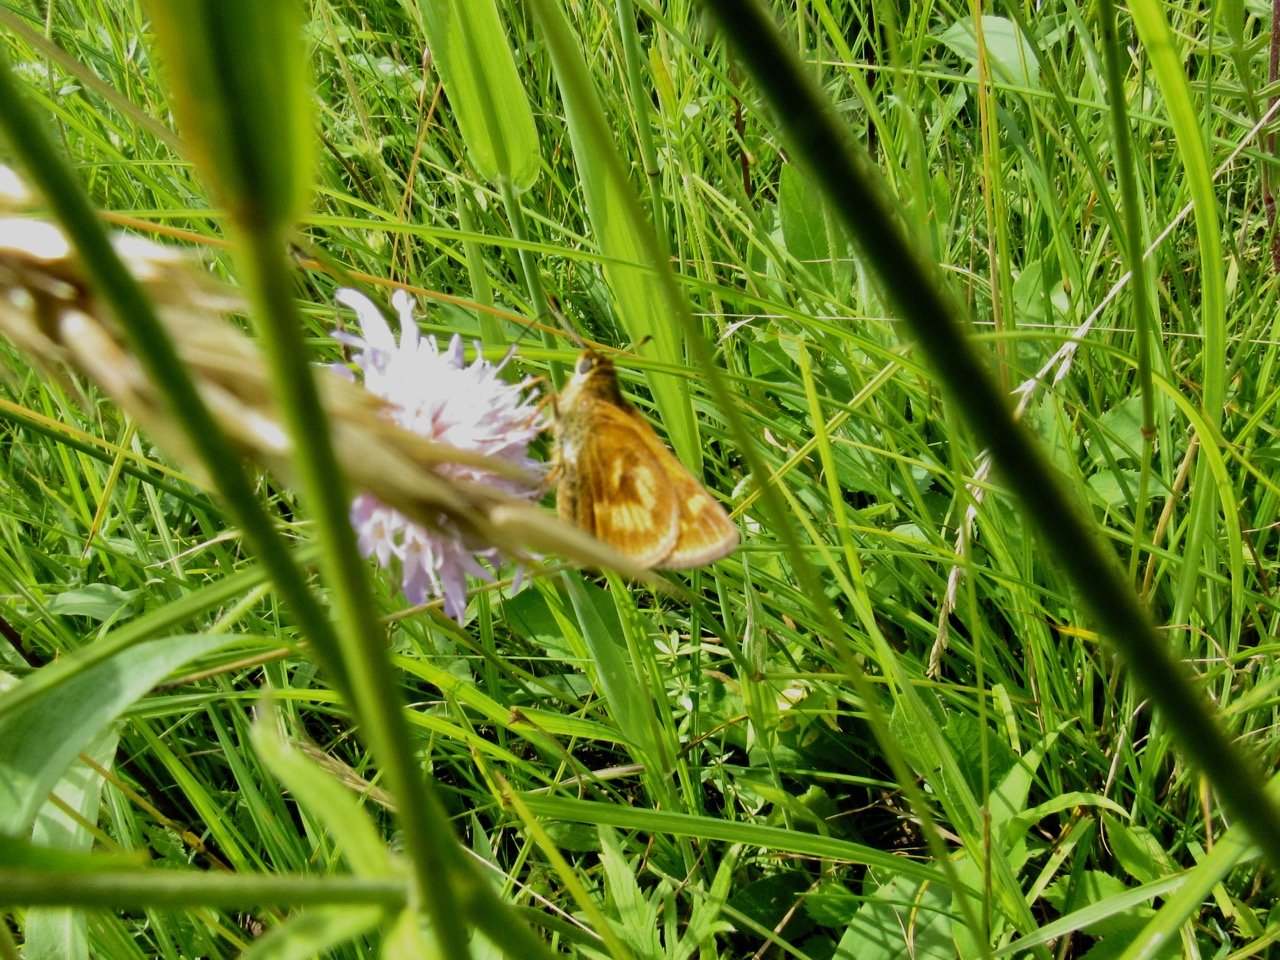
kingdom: Animalia
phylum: Arthropoda
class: Insecta
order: Lepidoptera
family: Hesperiidae
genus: Polites
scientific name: Polites
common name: Long Dash Skipper
